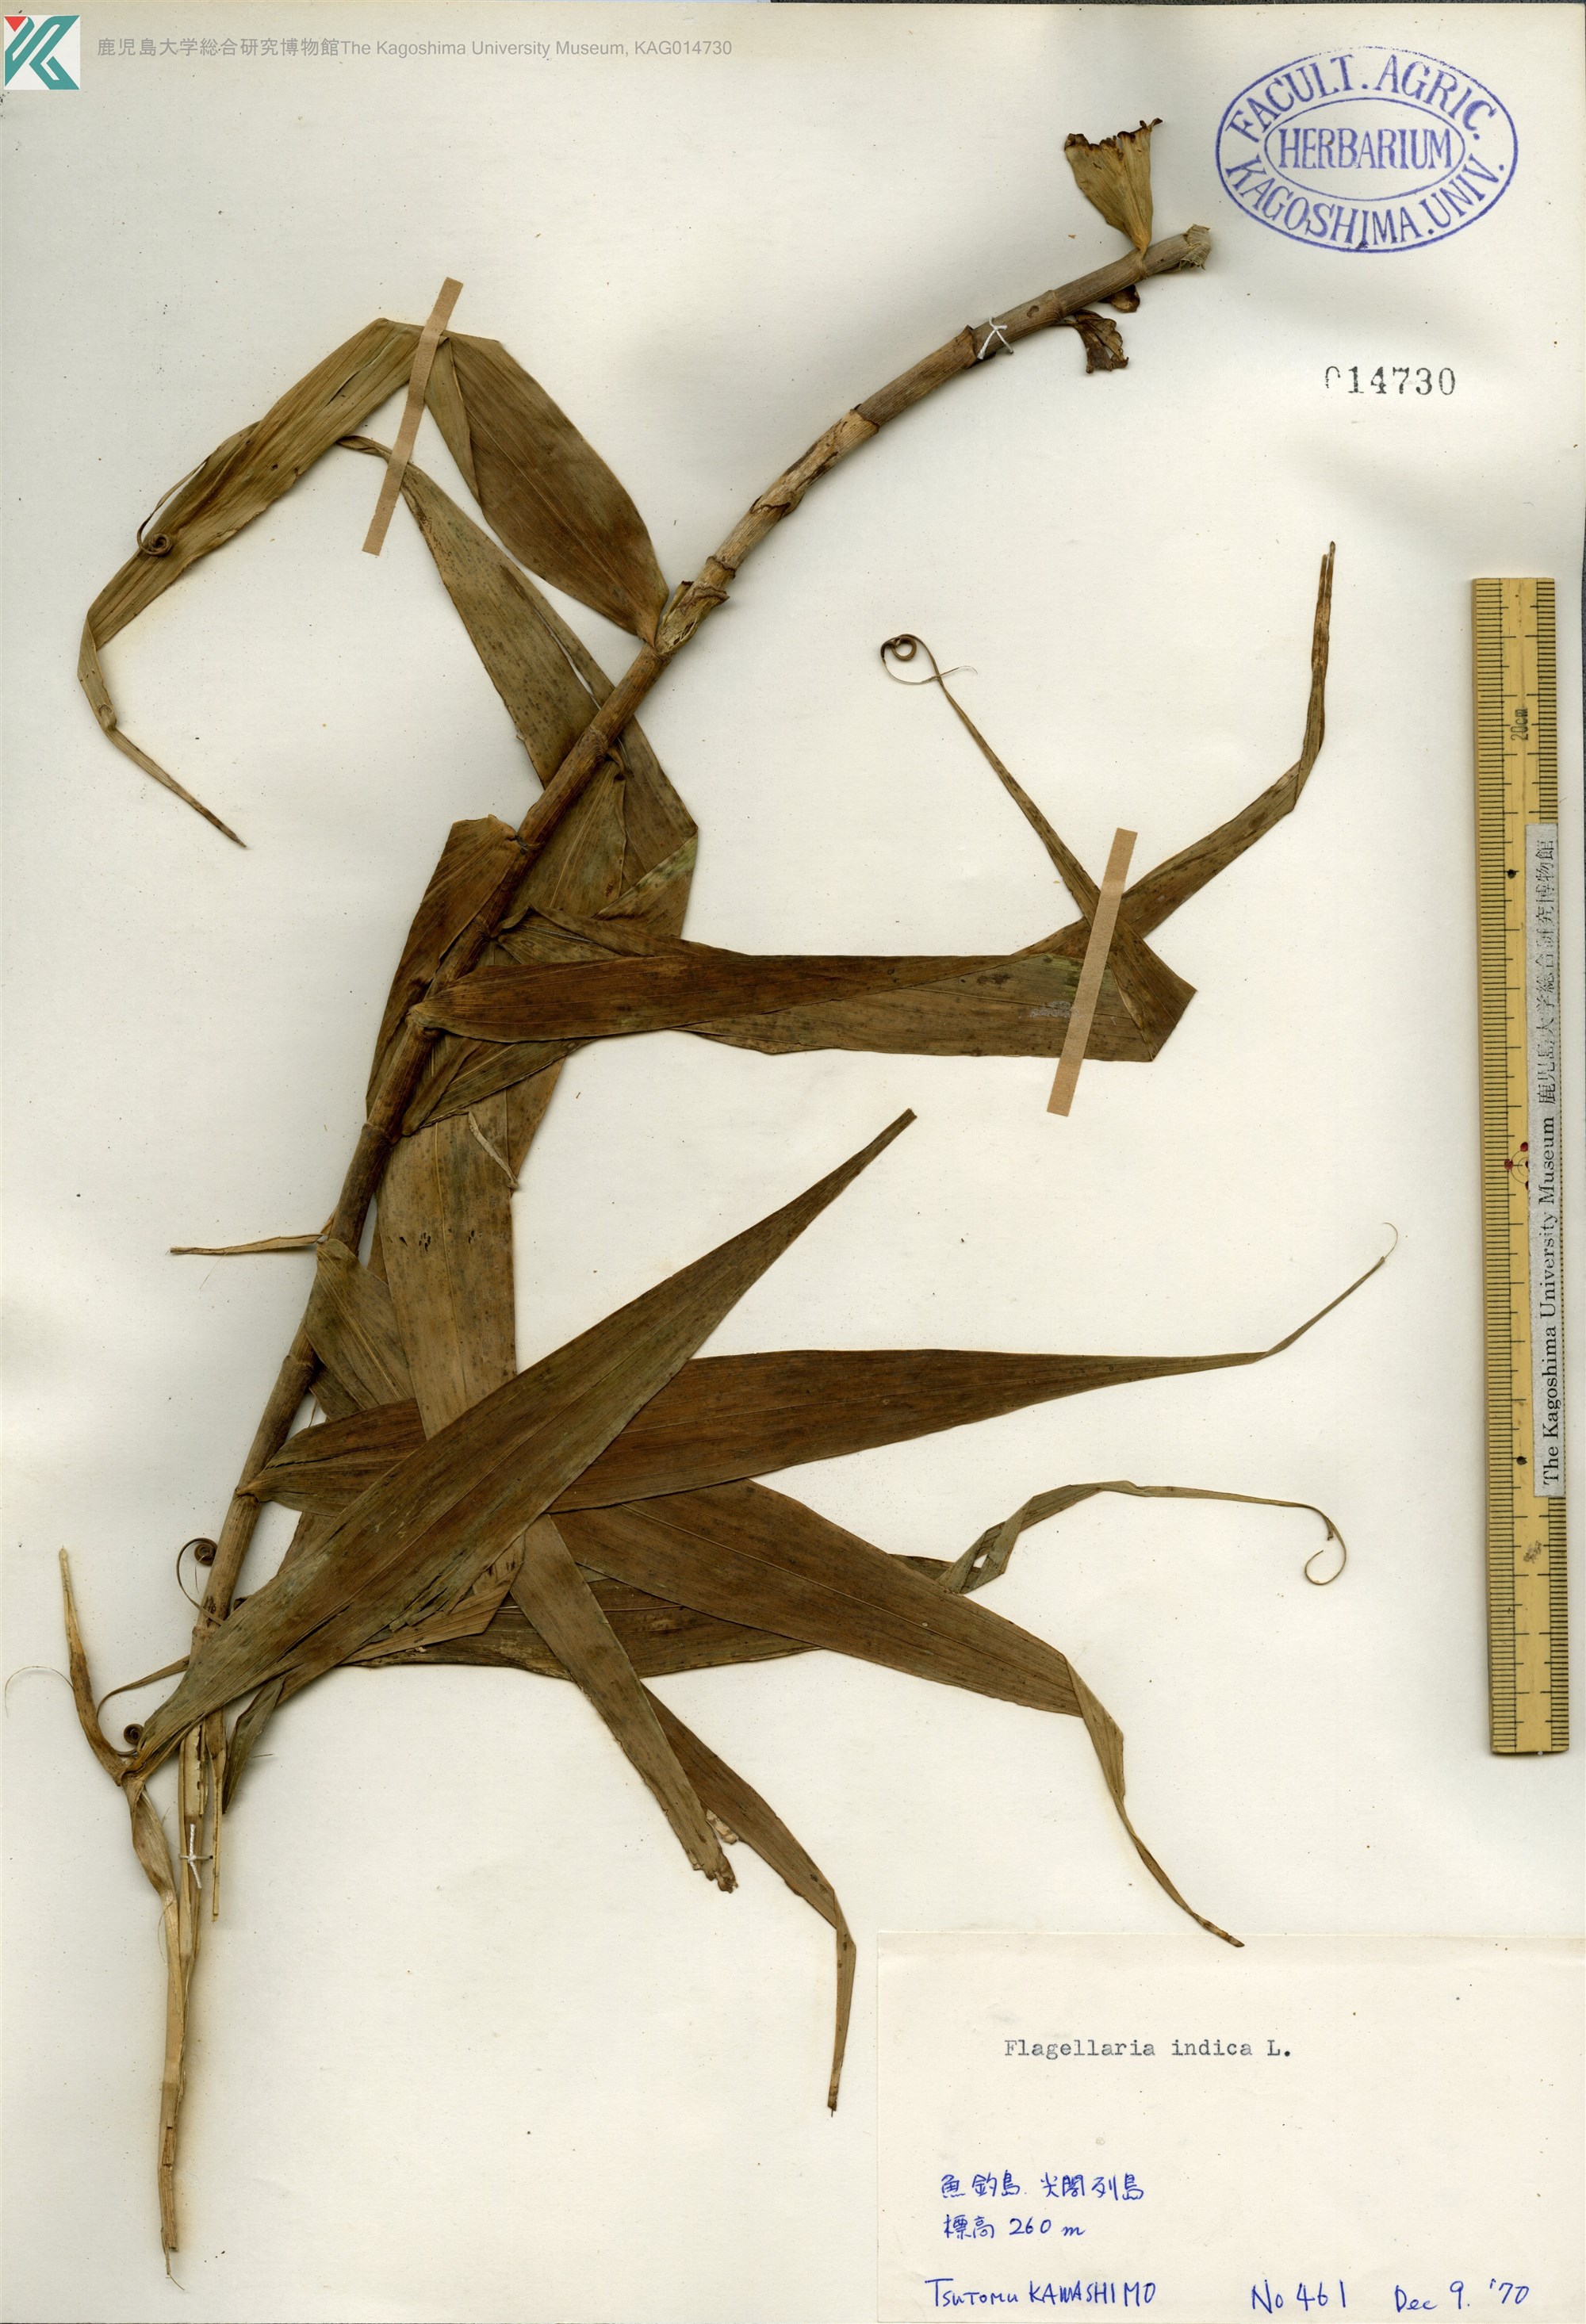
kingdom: Plantae
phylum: Tracheophyta
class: Liliopsida
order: Poales
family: Flagellariaceae
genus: Flagellaria
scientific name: Flagellaria indica
